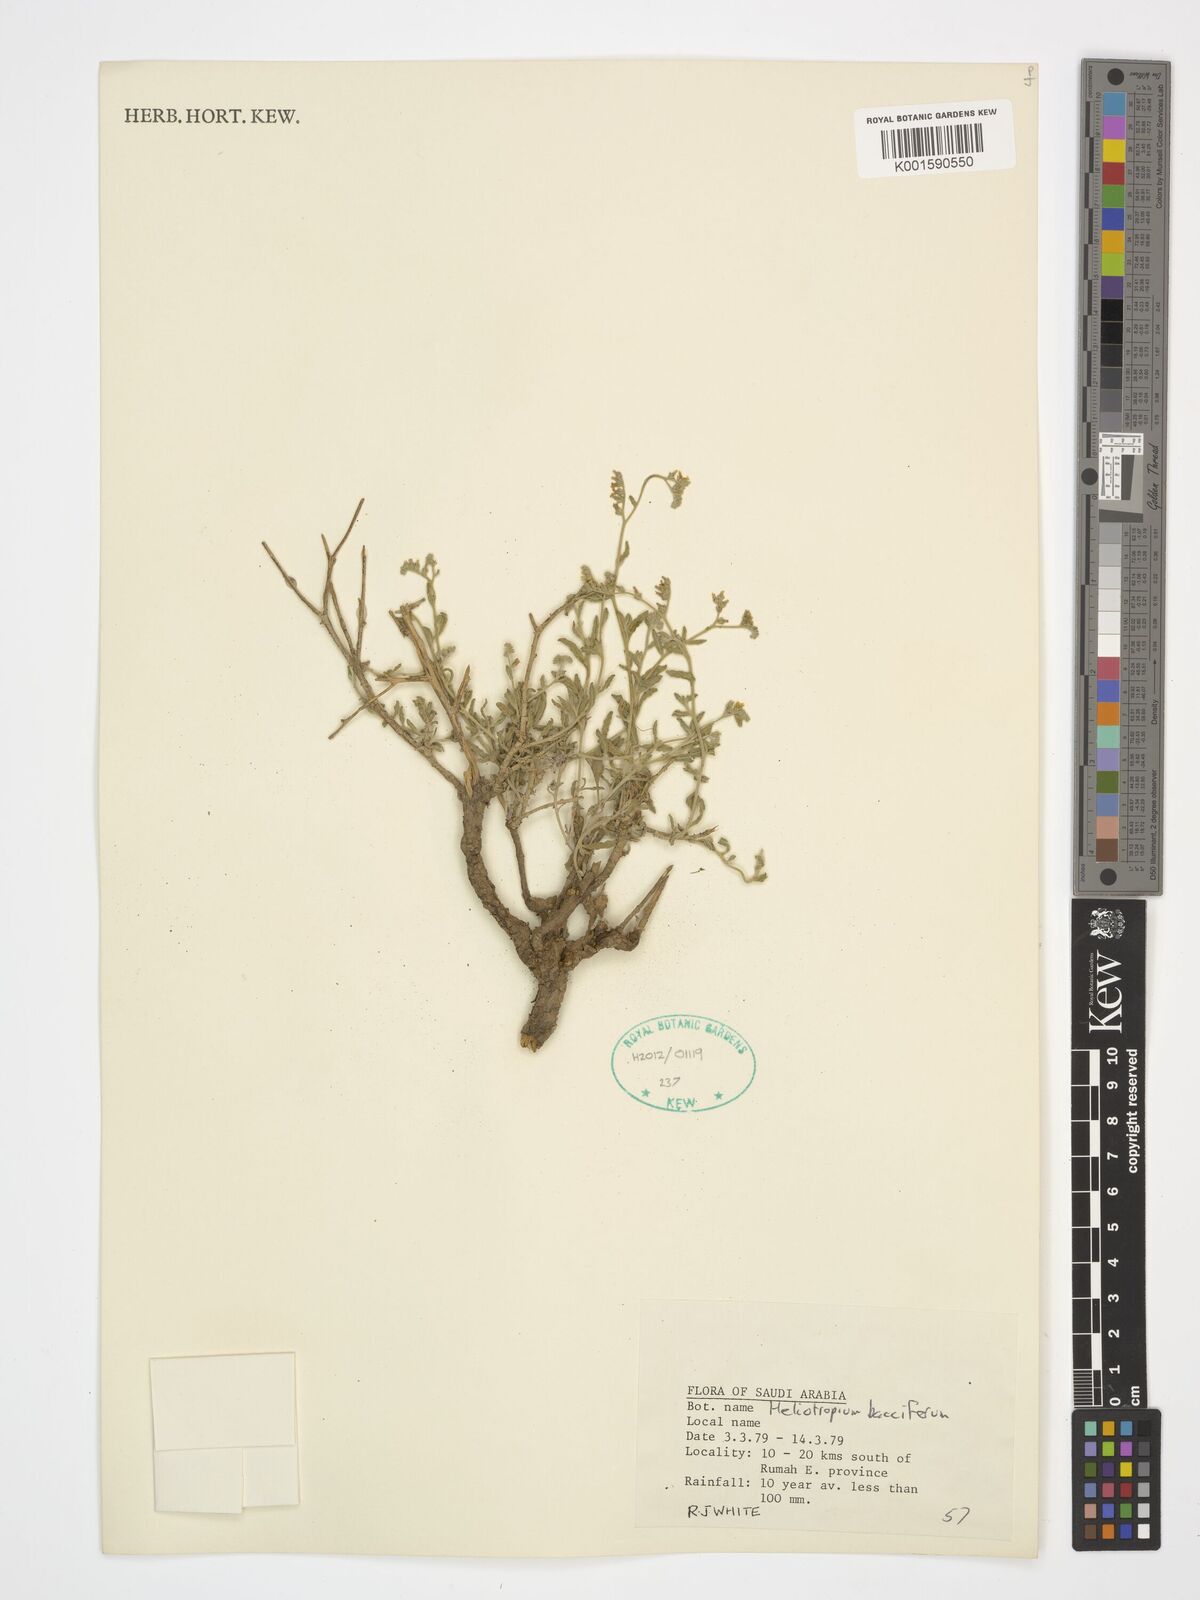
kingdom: Plantae
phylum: Tracheophyta
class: Magnoliopsida
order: Boraginales
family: Heliotropiaceae
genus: Heliotropium
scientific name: Heliotropium bacciferum
